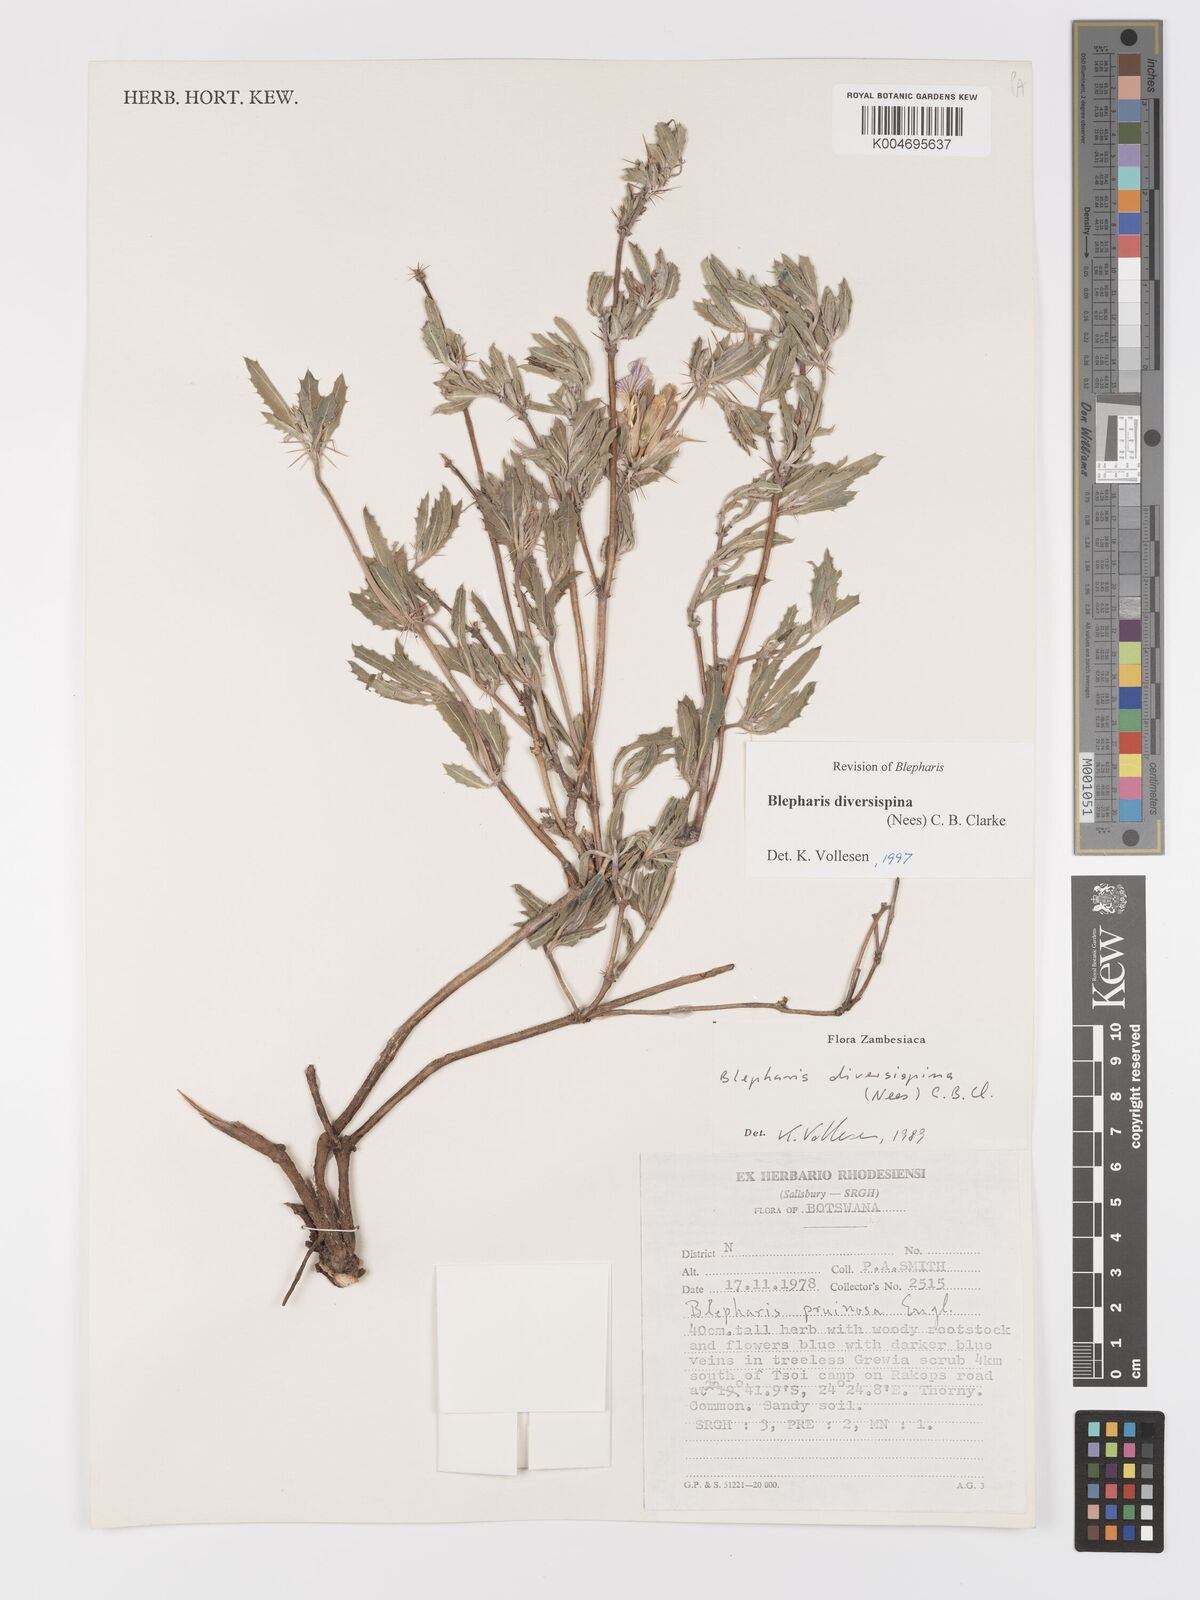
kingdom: Plantae
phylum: Tracheophyta
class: Magnoliopsida
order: Lamiales
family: Acanthaceae
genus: Blepharis
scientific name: Blepharis diversispina
